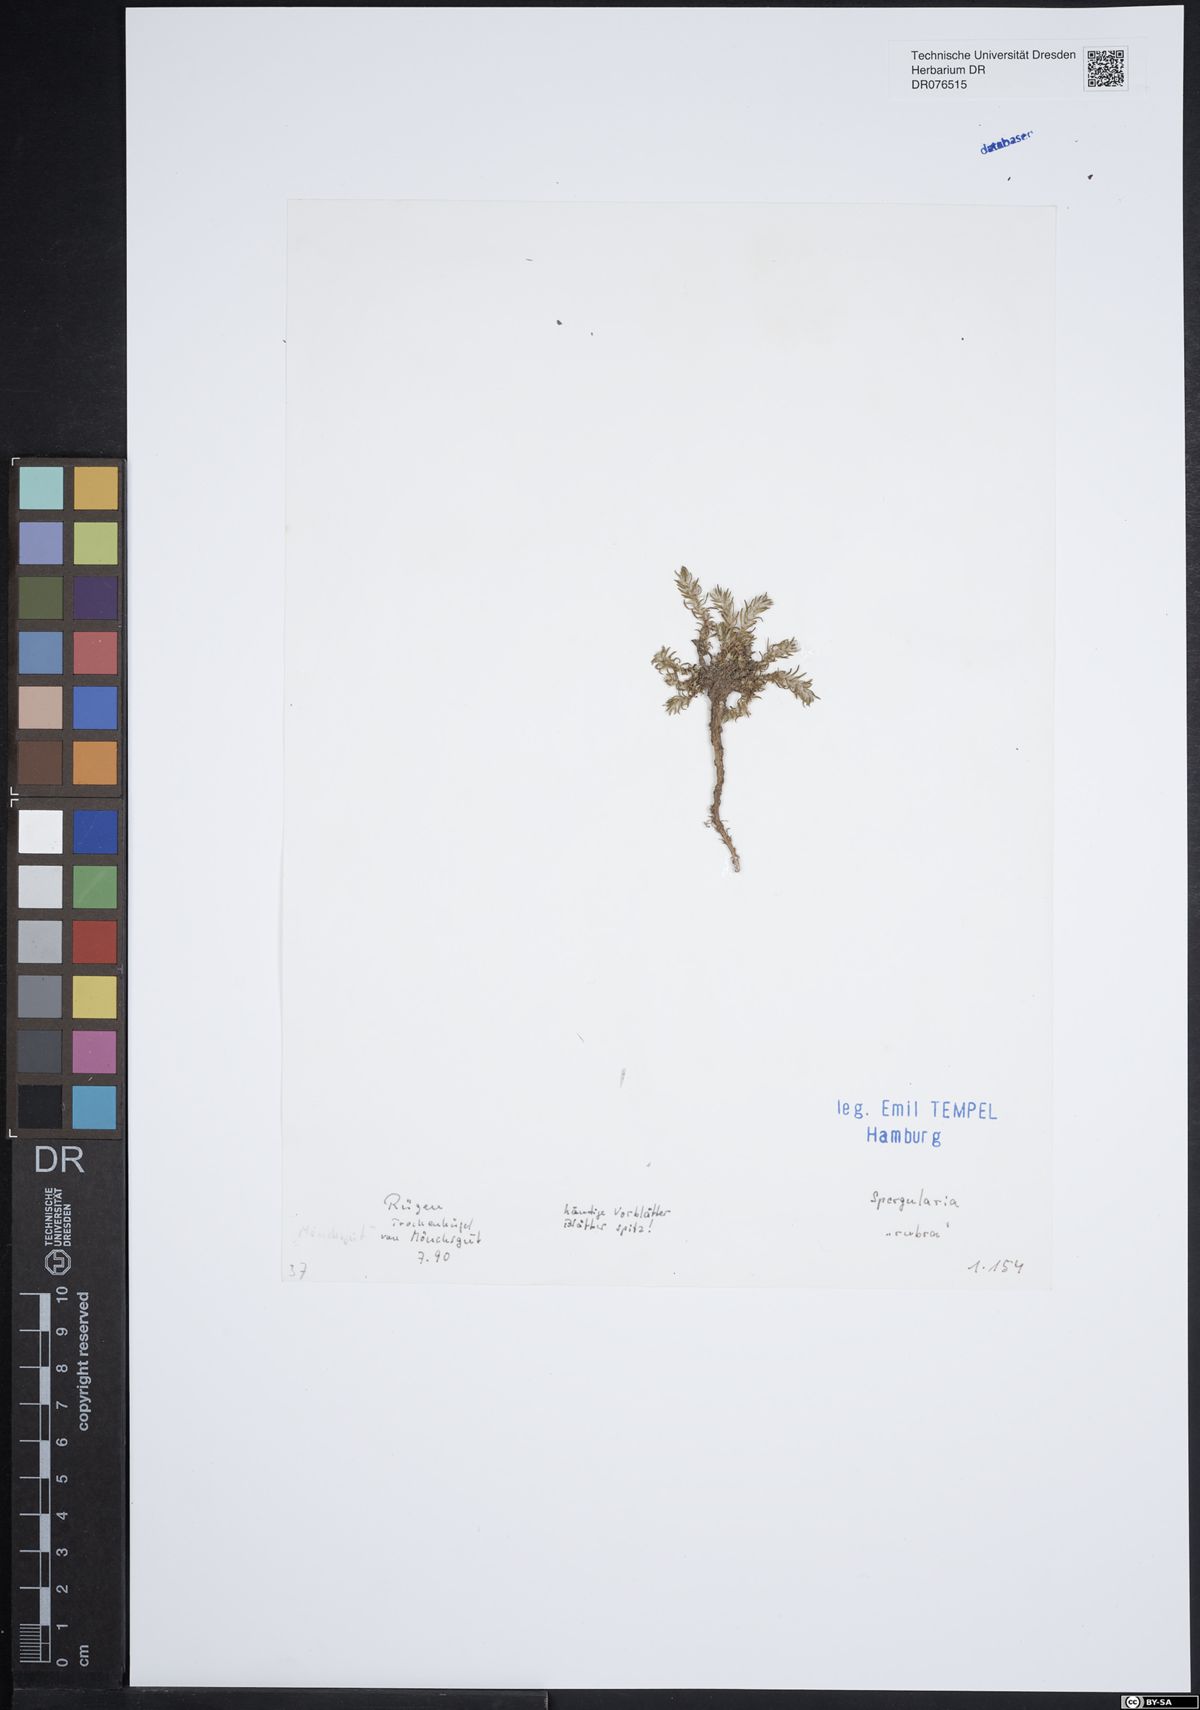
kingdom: Plantae
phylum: Tracheophyta
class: Magnoliopsida
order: Caryophyllales
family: Caryophyllaceae
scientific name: Caryophyllaceae
